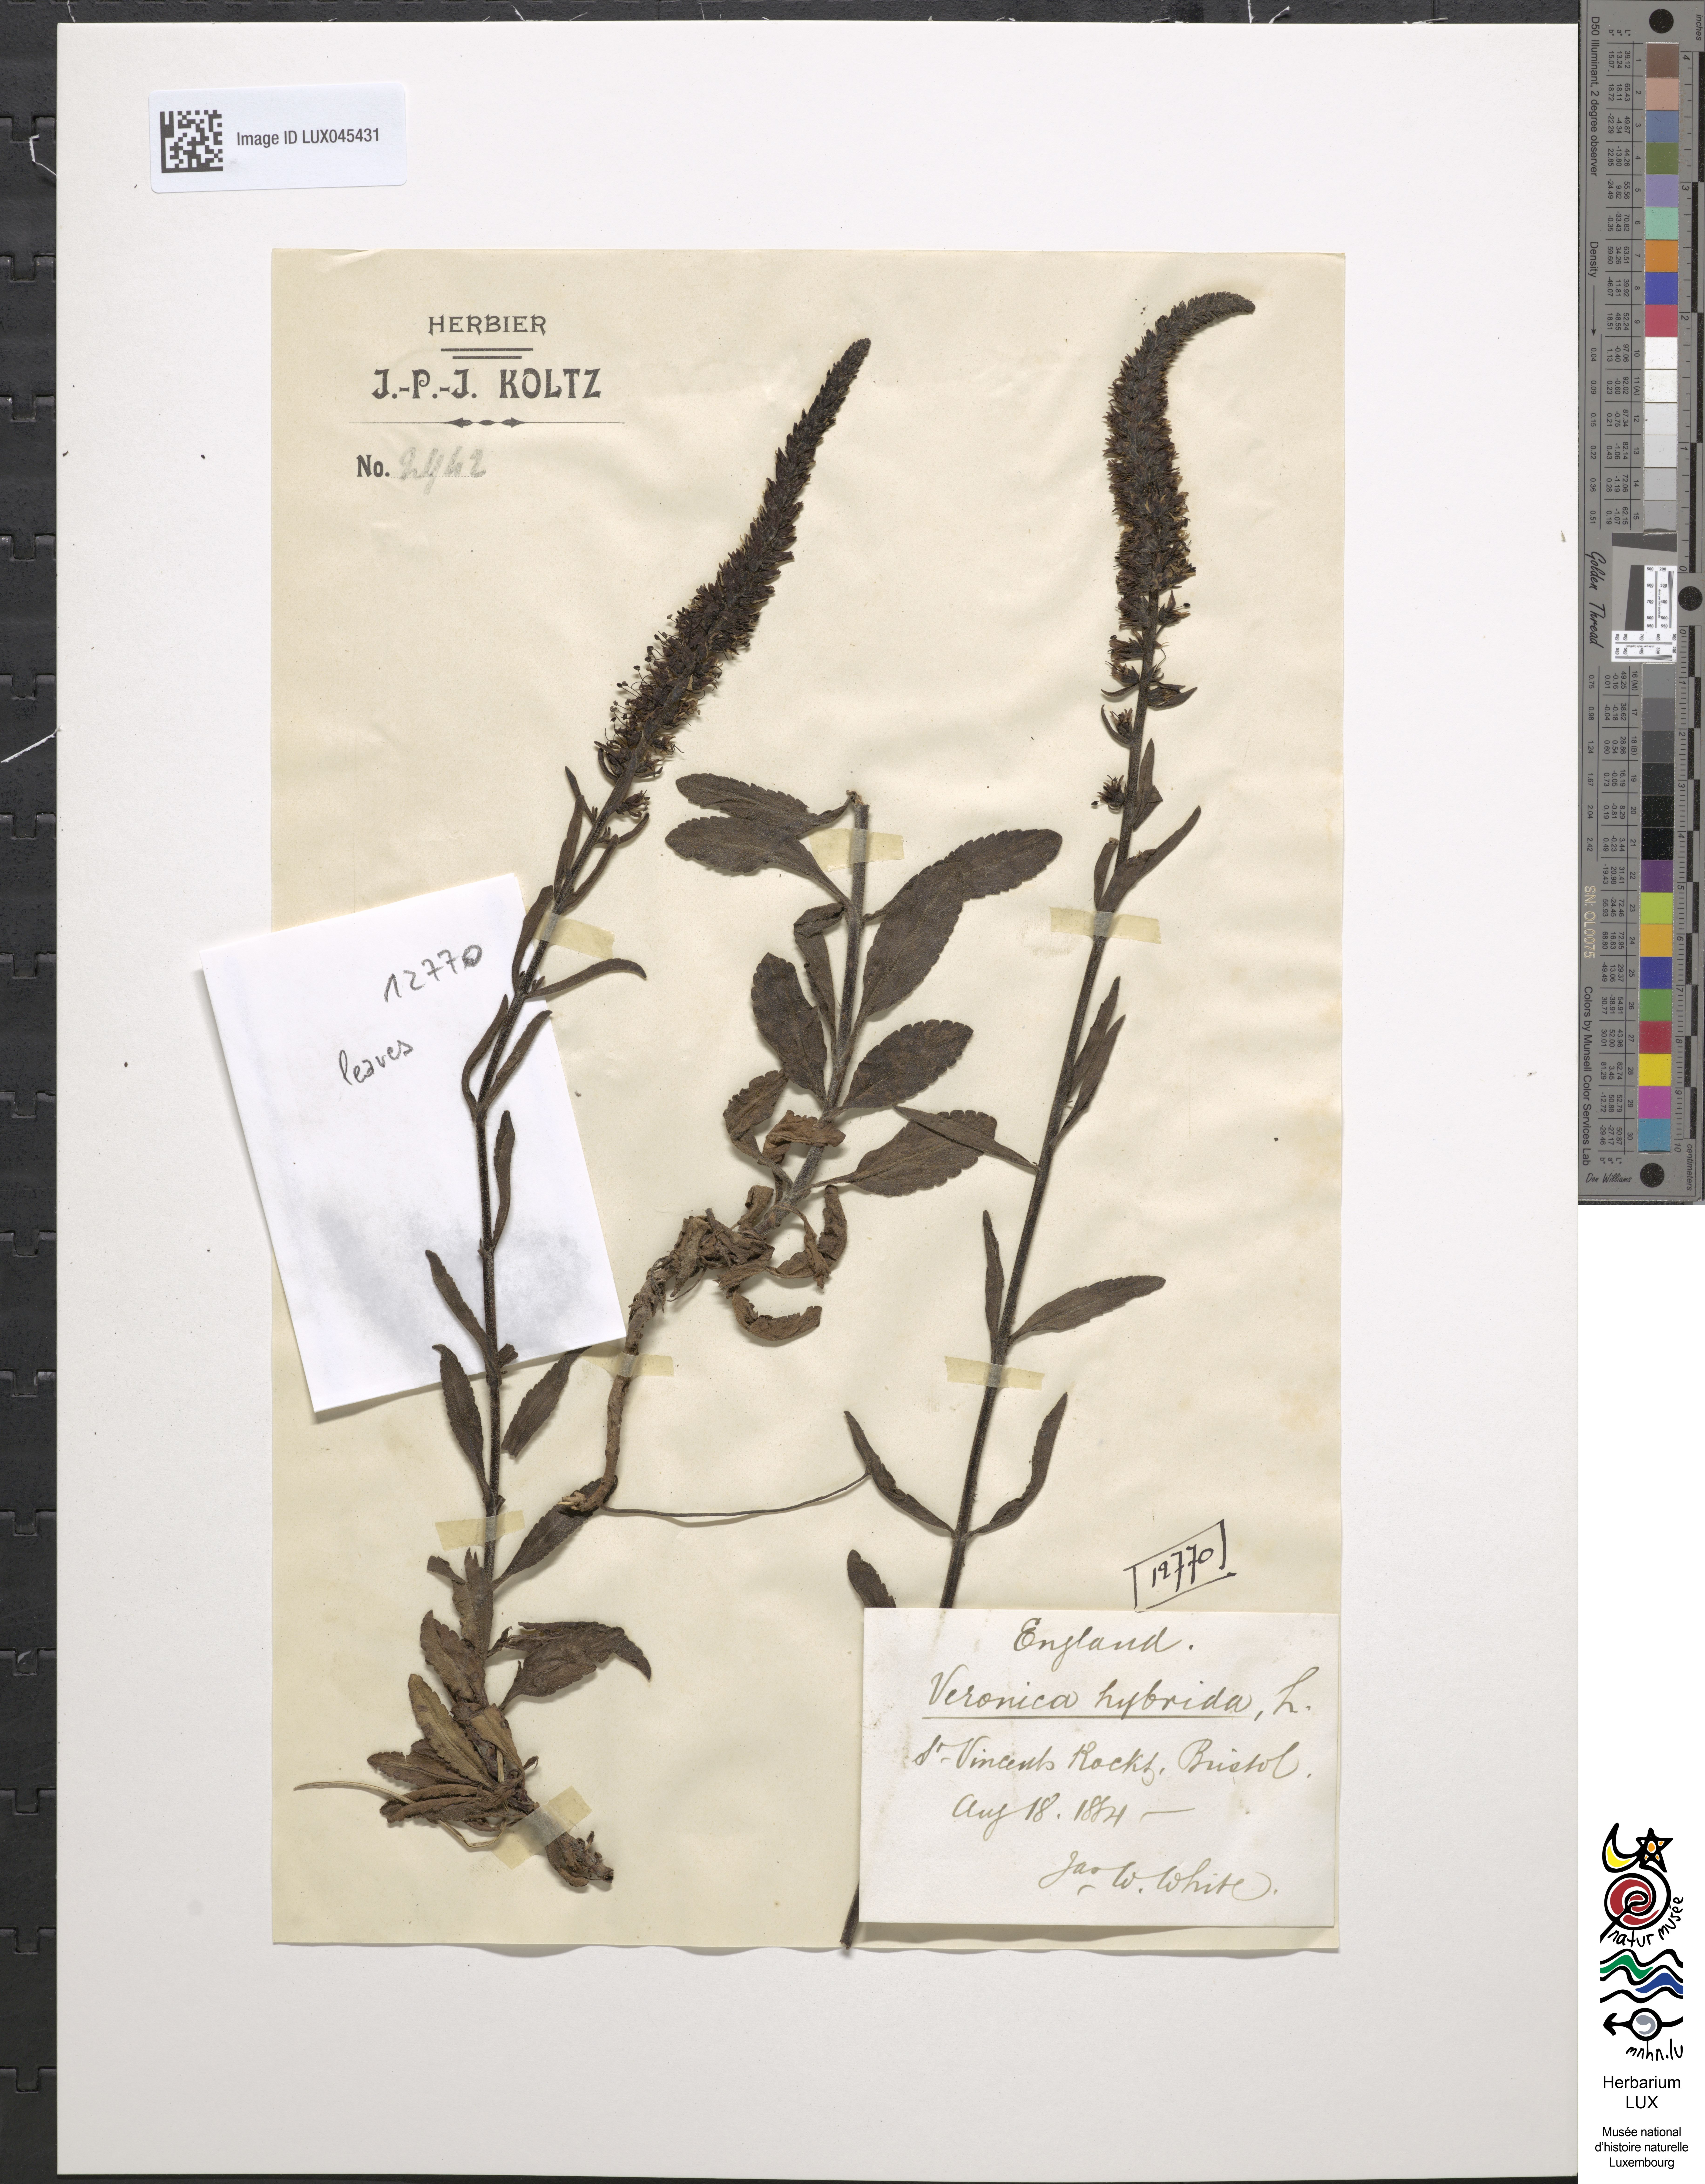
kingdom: Plantae
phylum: Tracheophyta
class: Magnoliopsida
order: Lamiales
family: Plantaginaceae
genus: Veronica
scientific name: Veronica spicata
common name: Spiked speedwell
